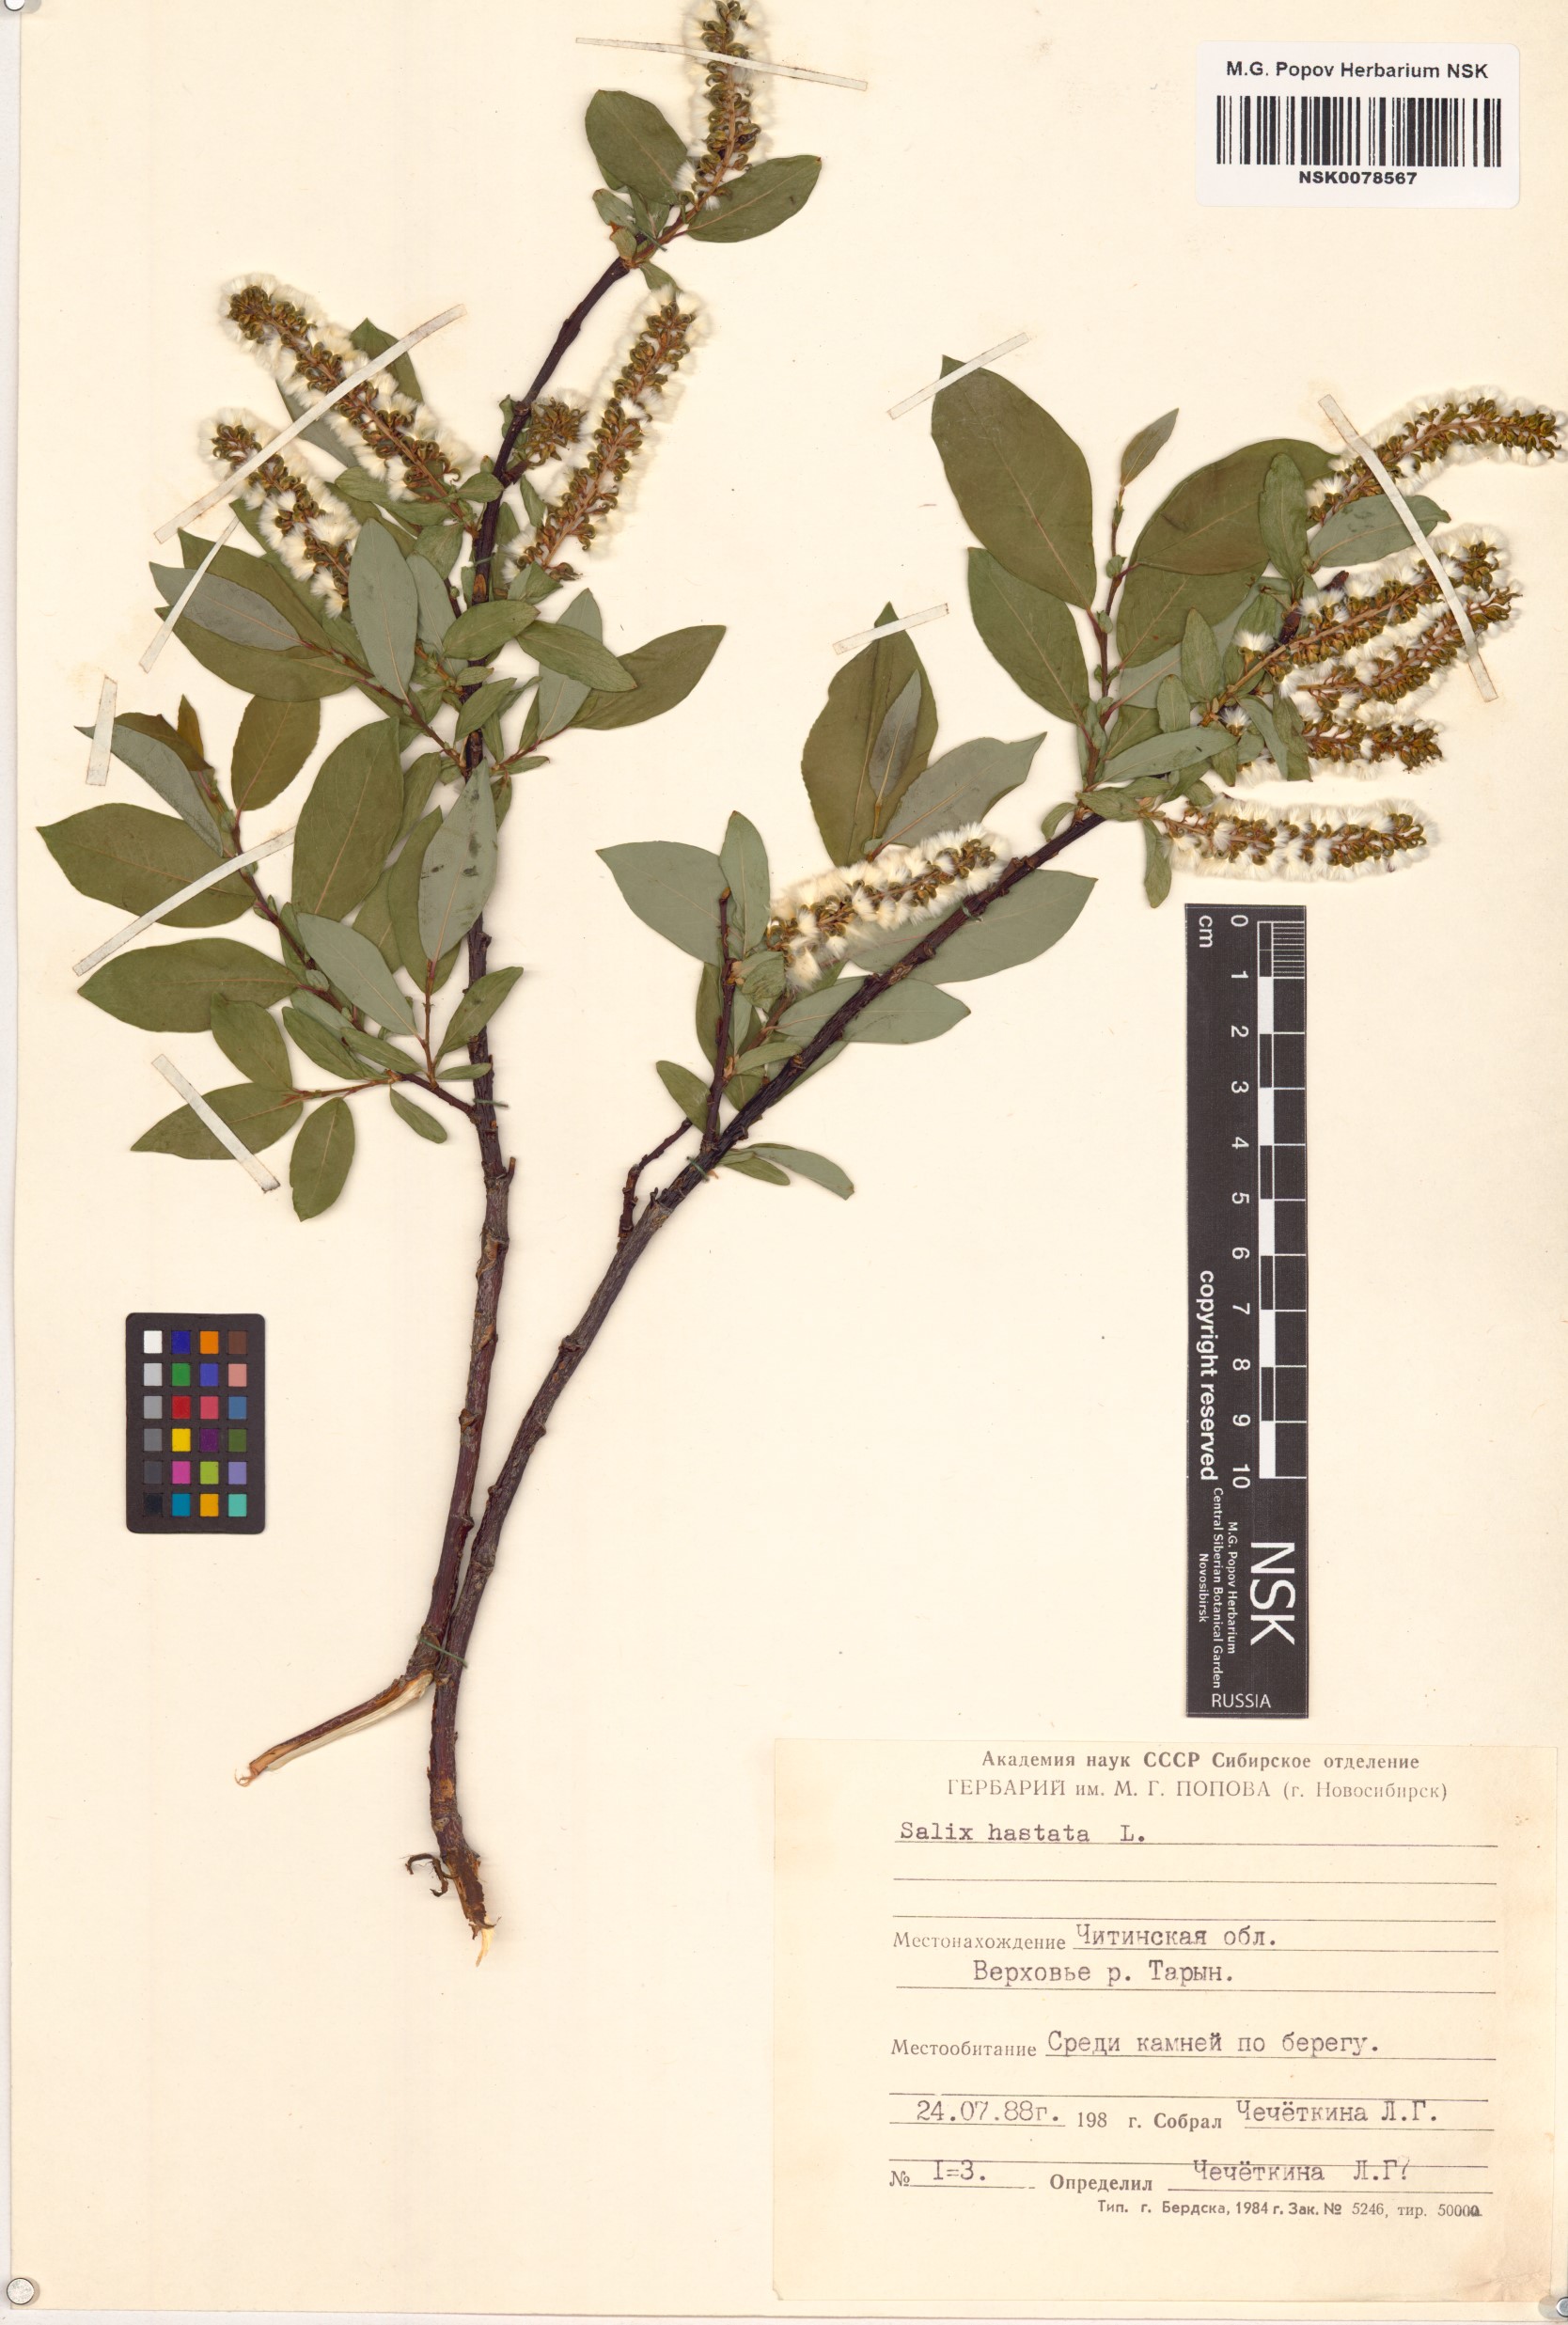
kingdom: Plantae
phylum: Tracheophyta
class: Magnoliopsida
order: Malpighiales
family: Salicaceae
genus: Salix
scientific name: Salix hastata
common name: Halberd willow
